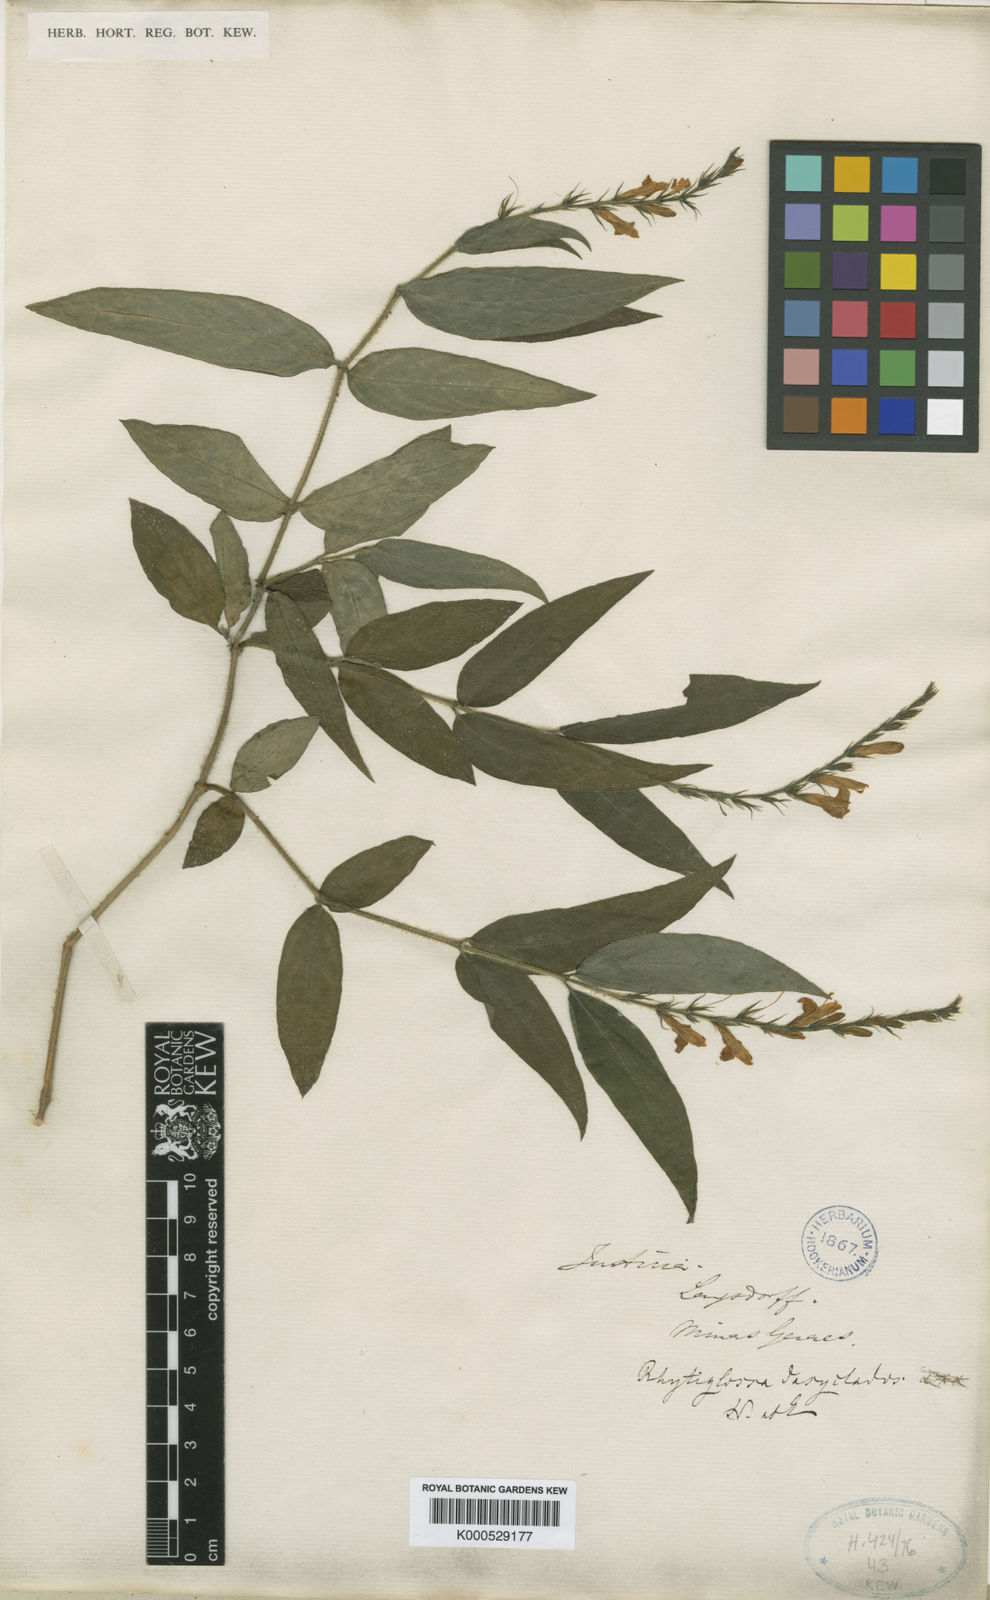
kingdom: Plantae
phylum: Tracheophyta
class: Magnoliopsida
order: Lamiales
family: Acanthaceae
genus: Dianthera
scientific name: Dianthera dasyclados
